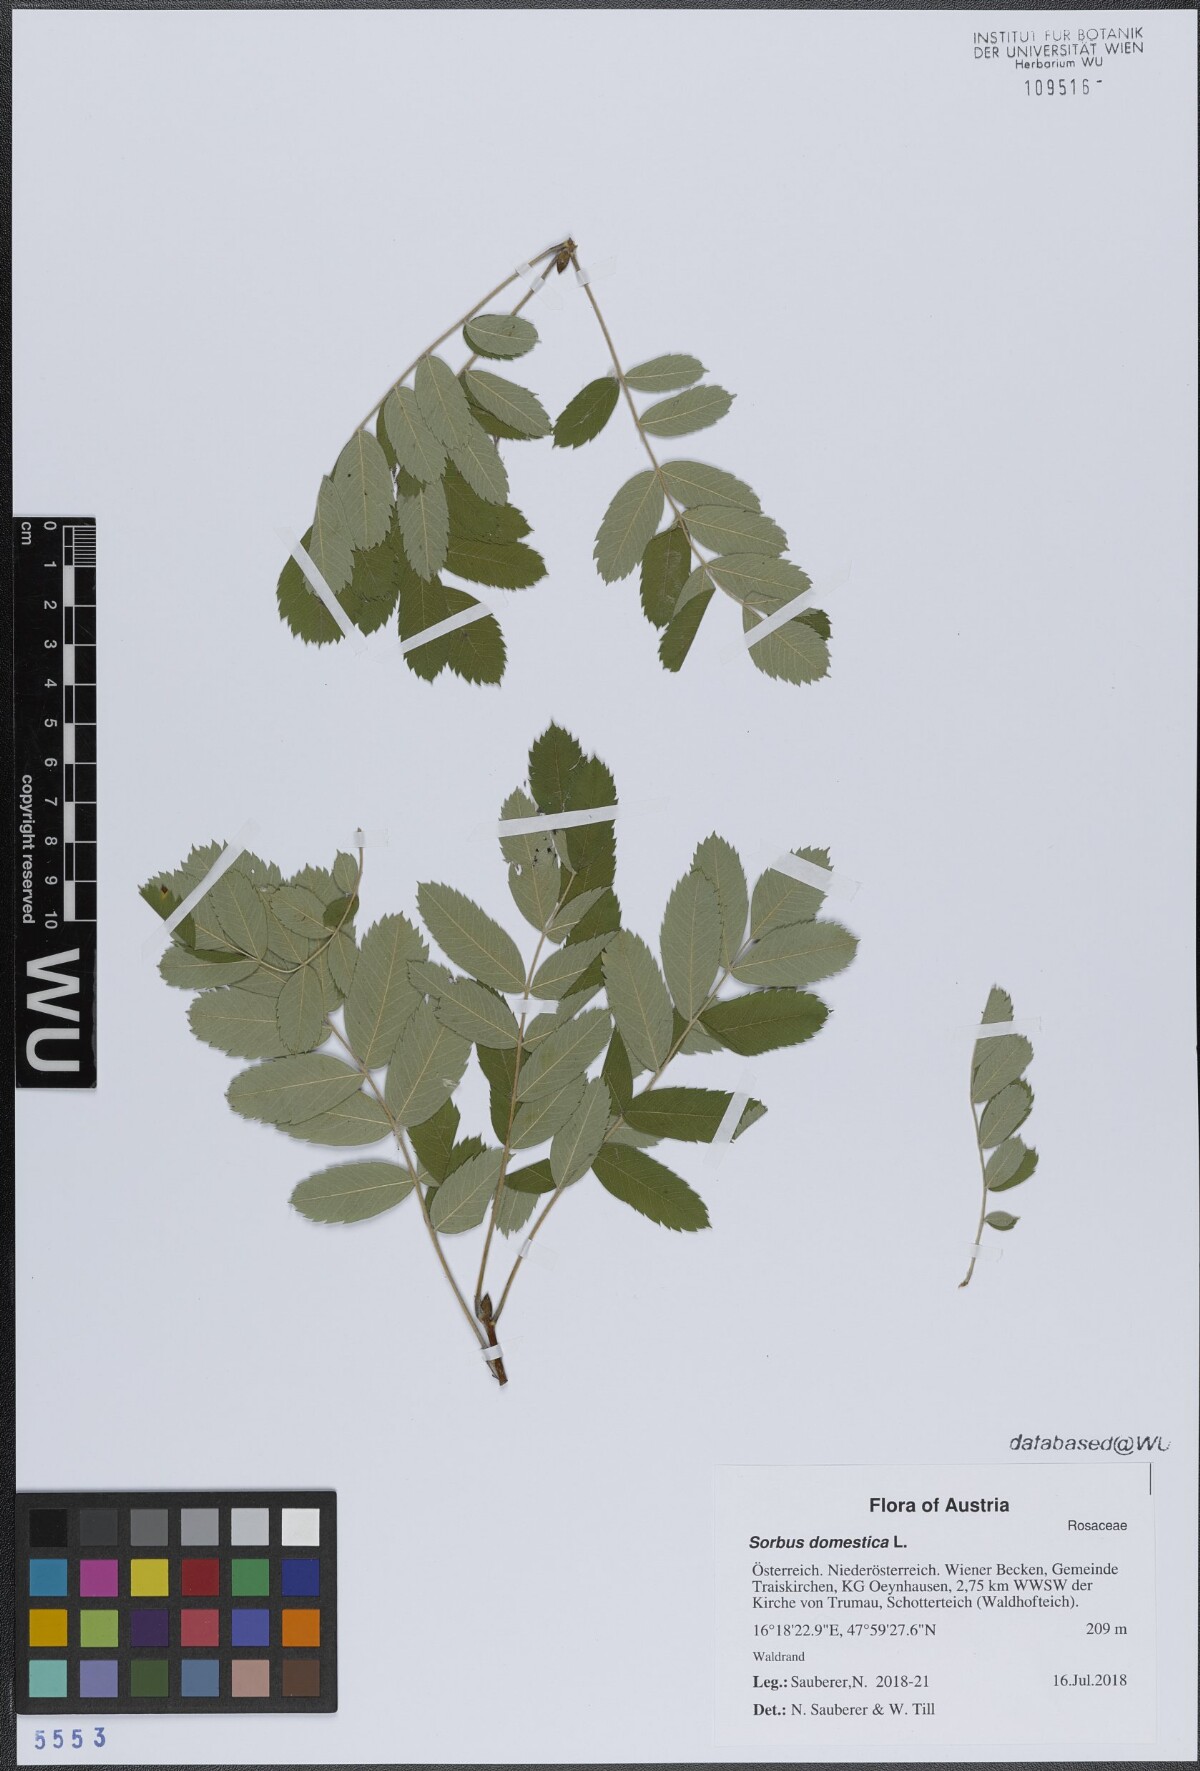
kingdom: Plantae
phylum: Tracheophyta
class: Magnoliopsida
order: Rosales
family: Rosaceae
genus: Cormus
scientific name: Cormus domestica
